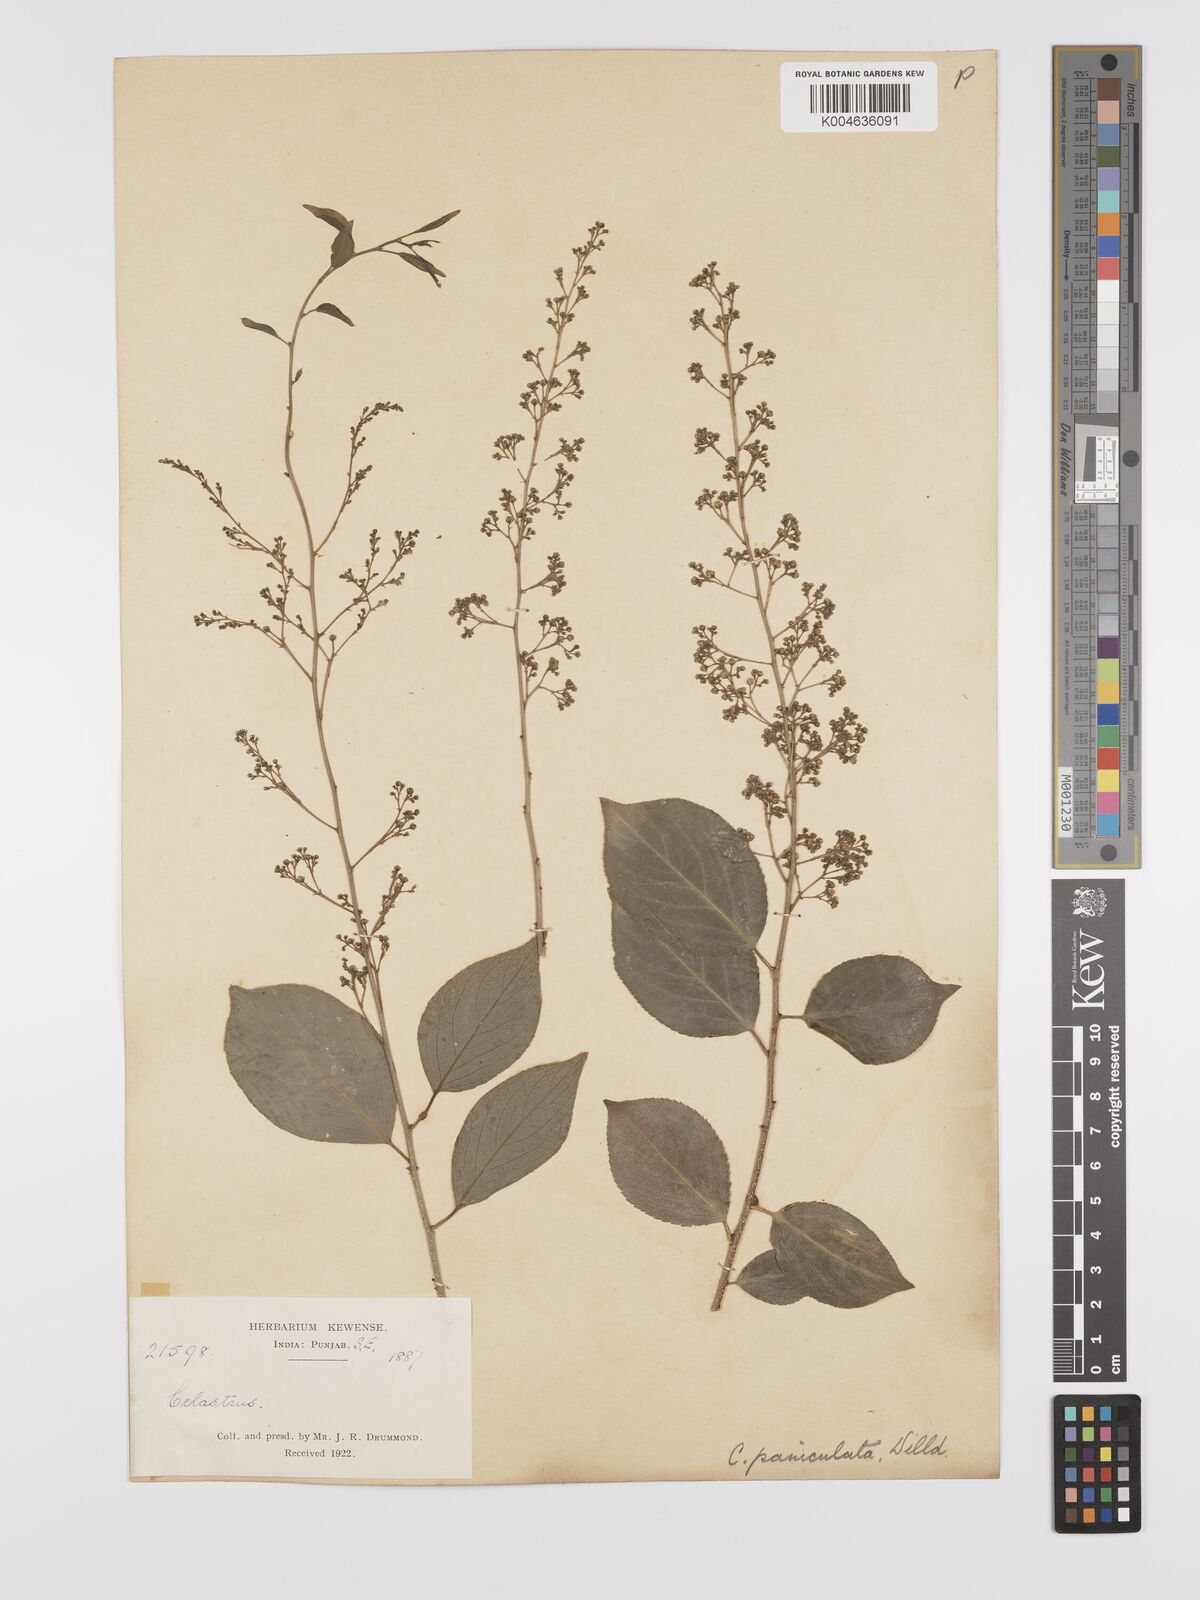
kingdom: Plantae
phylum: Tracheophyta
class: Magnoliopsida
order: Celastrales
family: Celastraceae
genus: Celastrus
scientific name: Celastrus paniculatus
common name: Oriental bittersweet; staff vine
